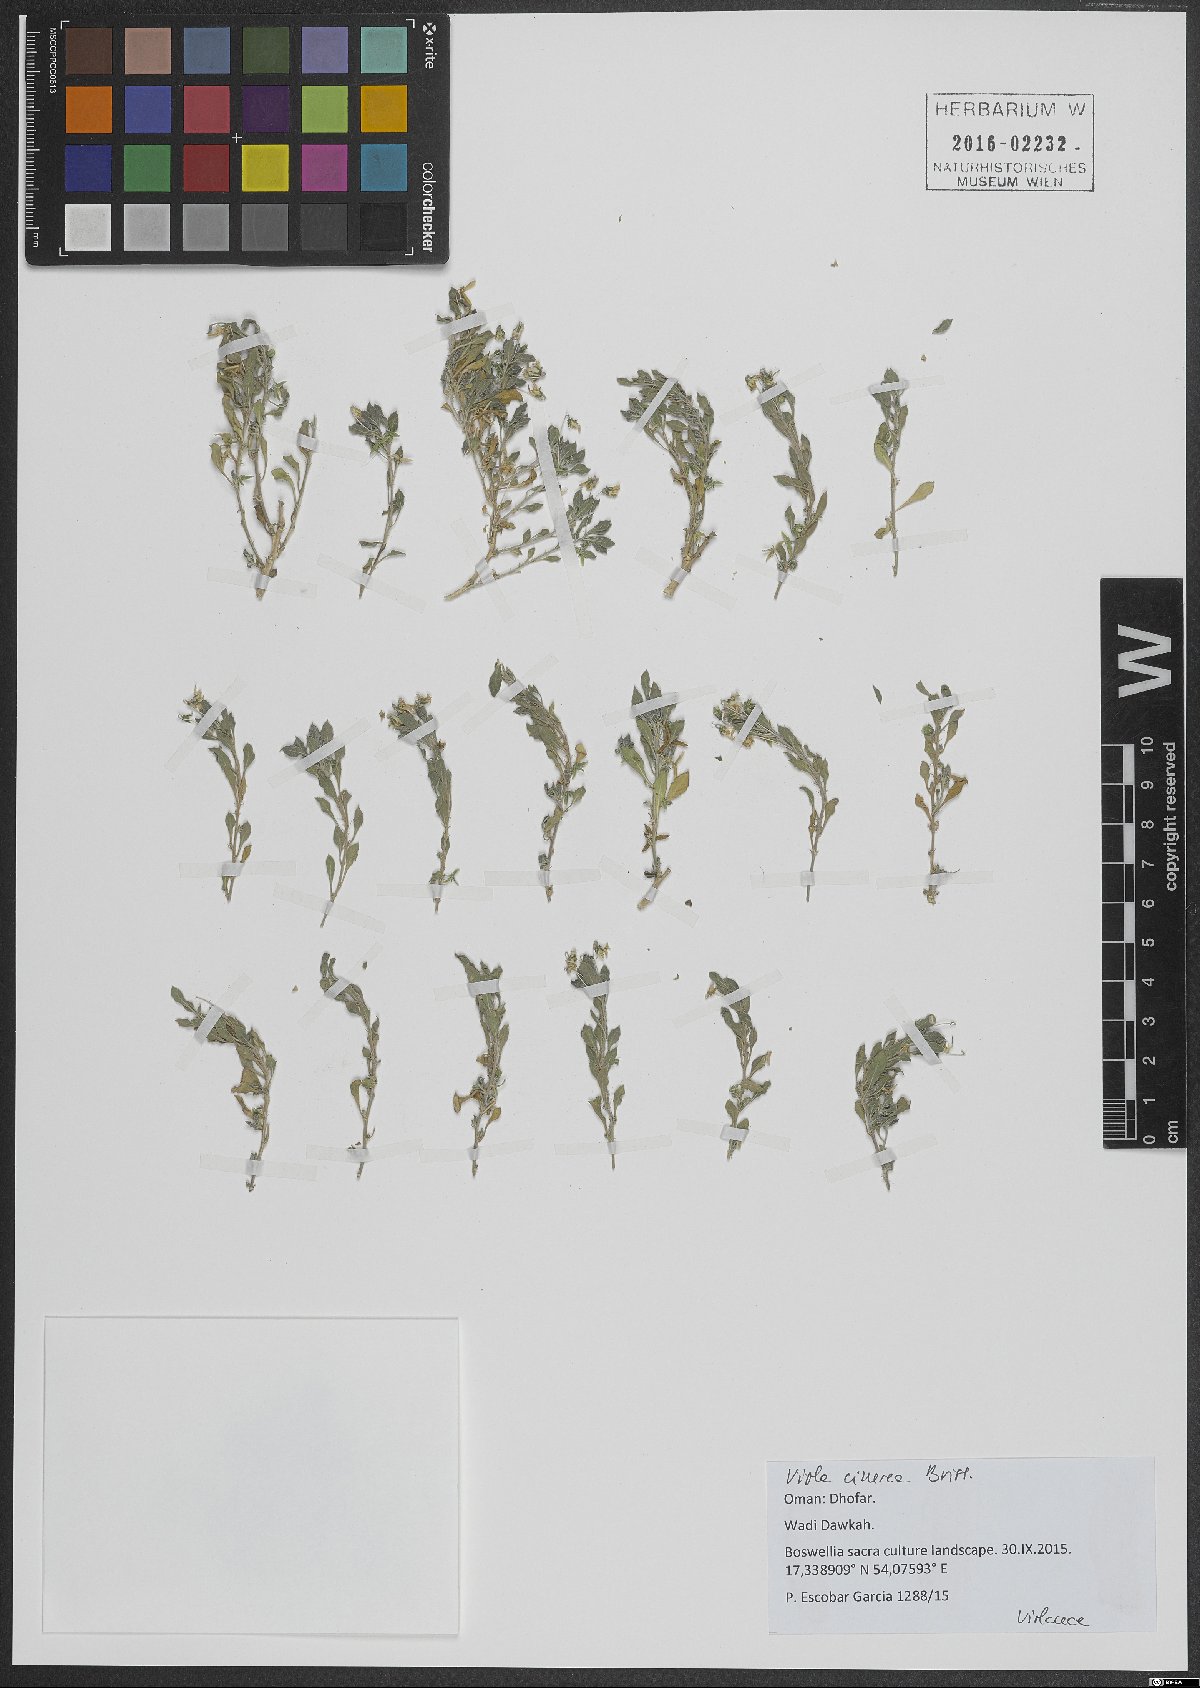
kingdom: Plantae
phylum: Tracheophyta
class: Magnoliopsida
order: Malpighiales
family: Violaceae
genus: Viola
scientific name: Viola cinerea
